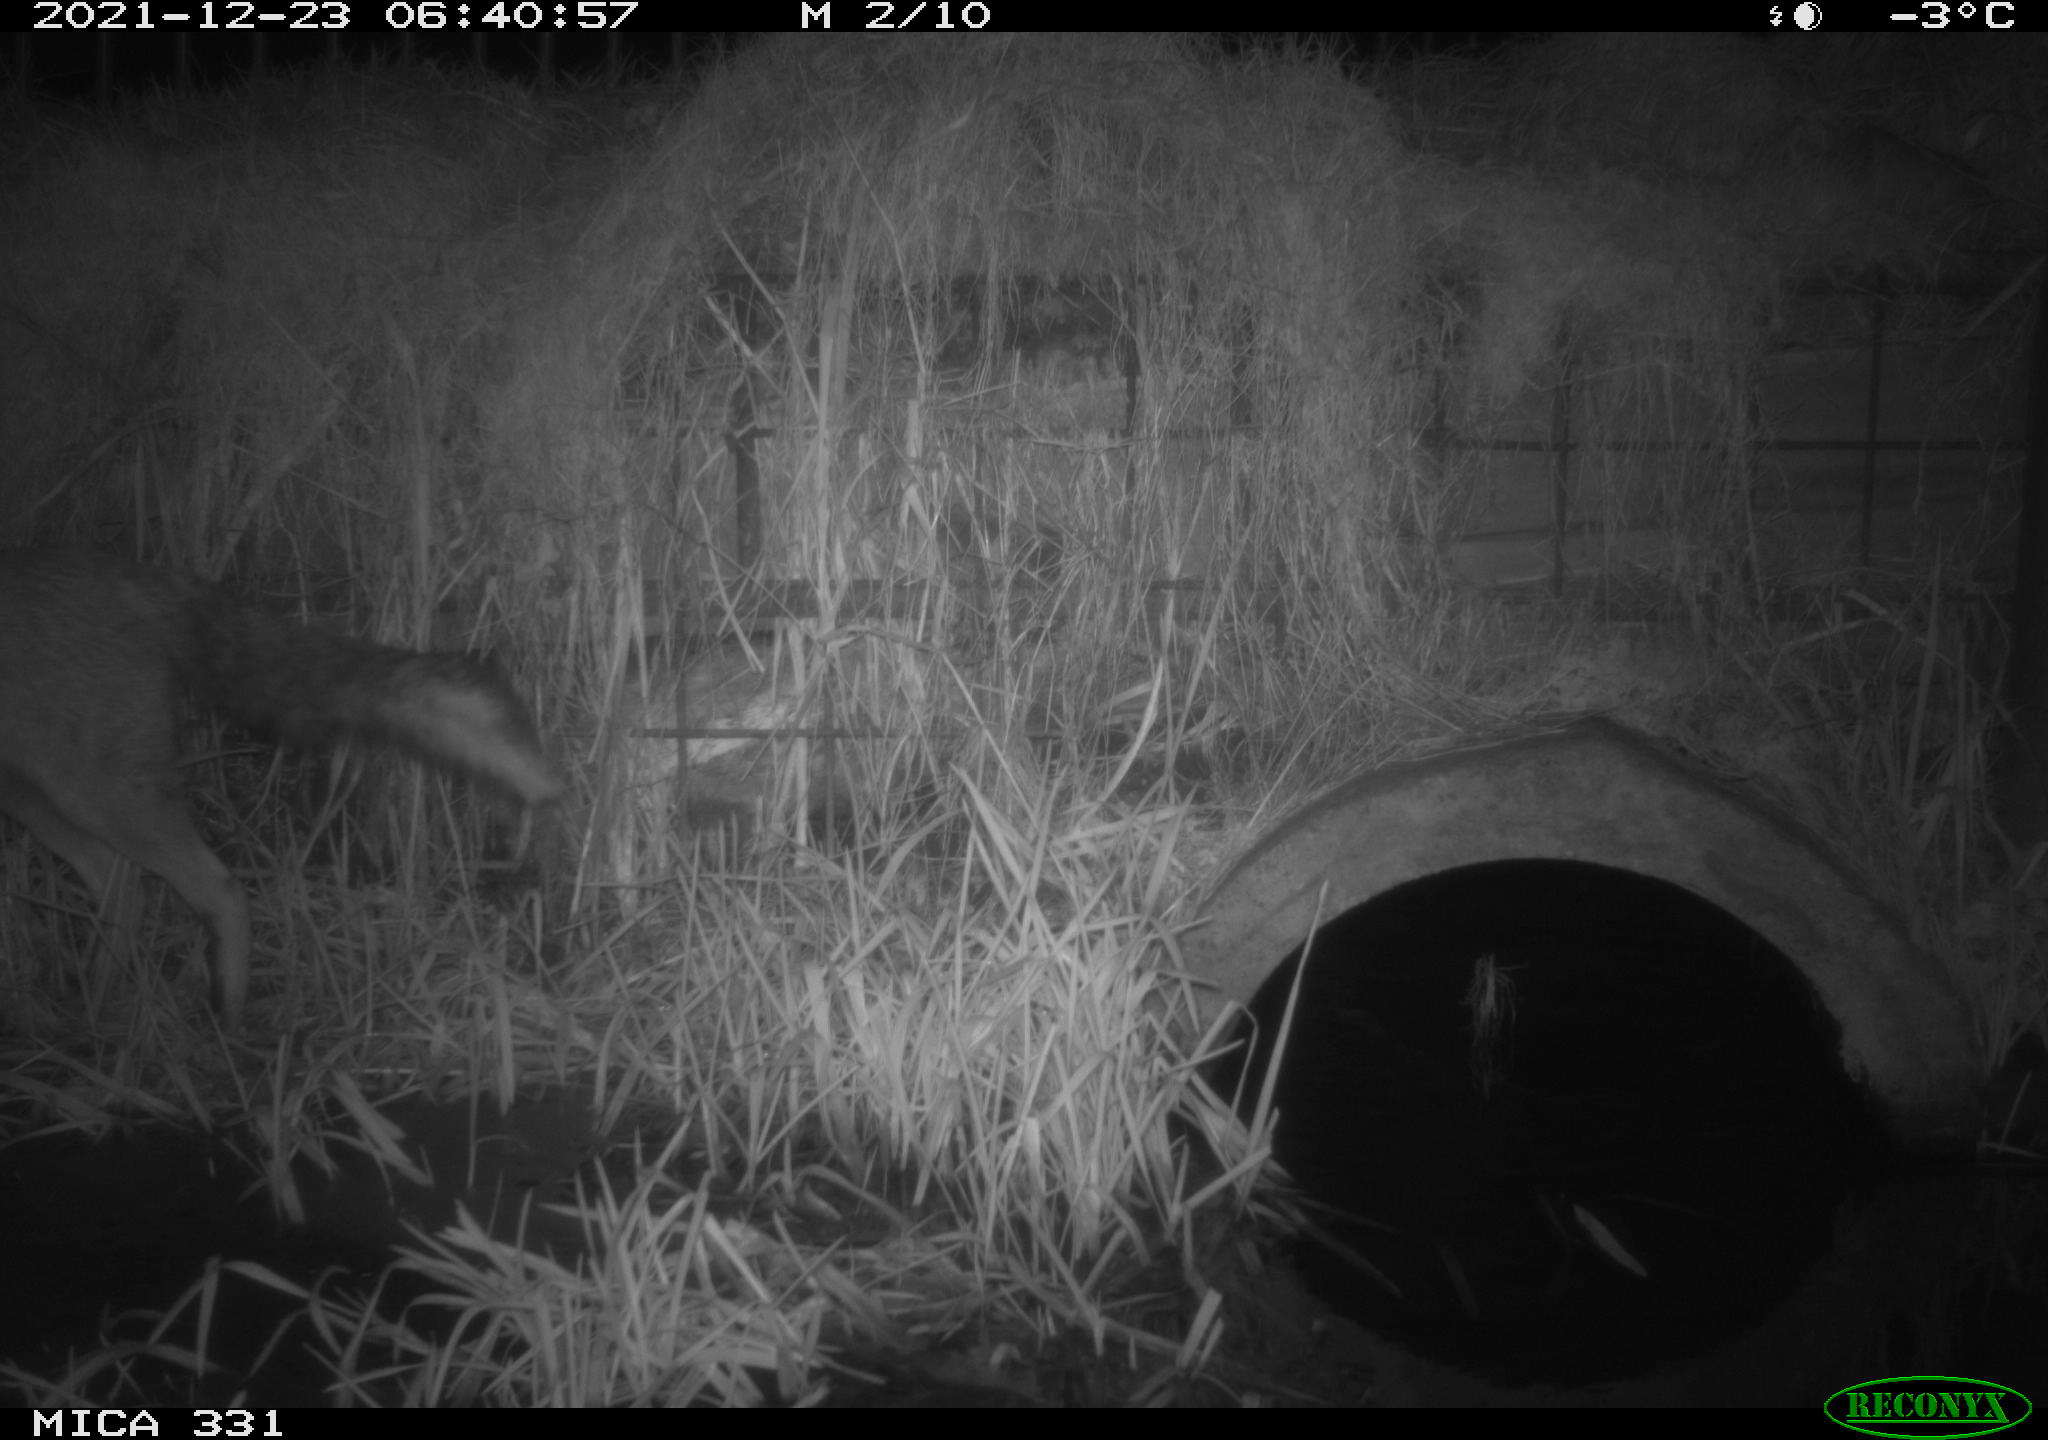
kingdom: Animalia
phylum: Chordata
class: Mammalia
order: Carnivora
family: Canidae
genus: Vulpes
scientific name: Vulpes vulpes
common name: Red fox
